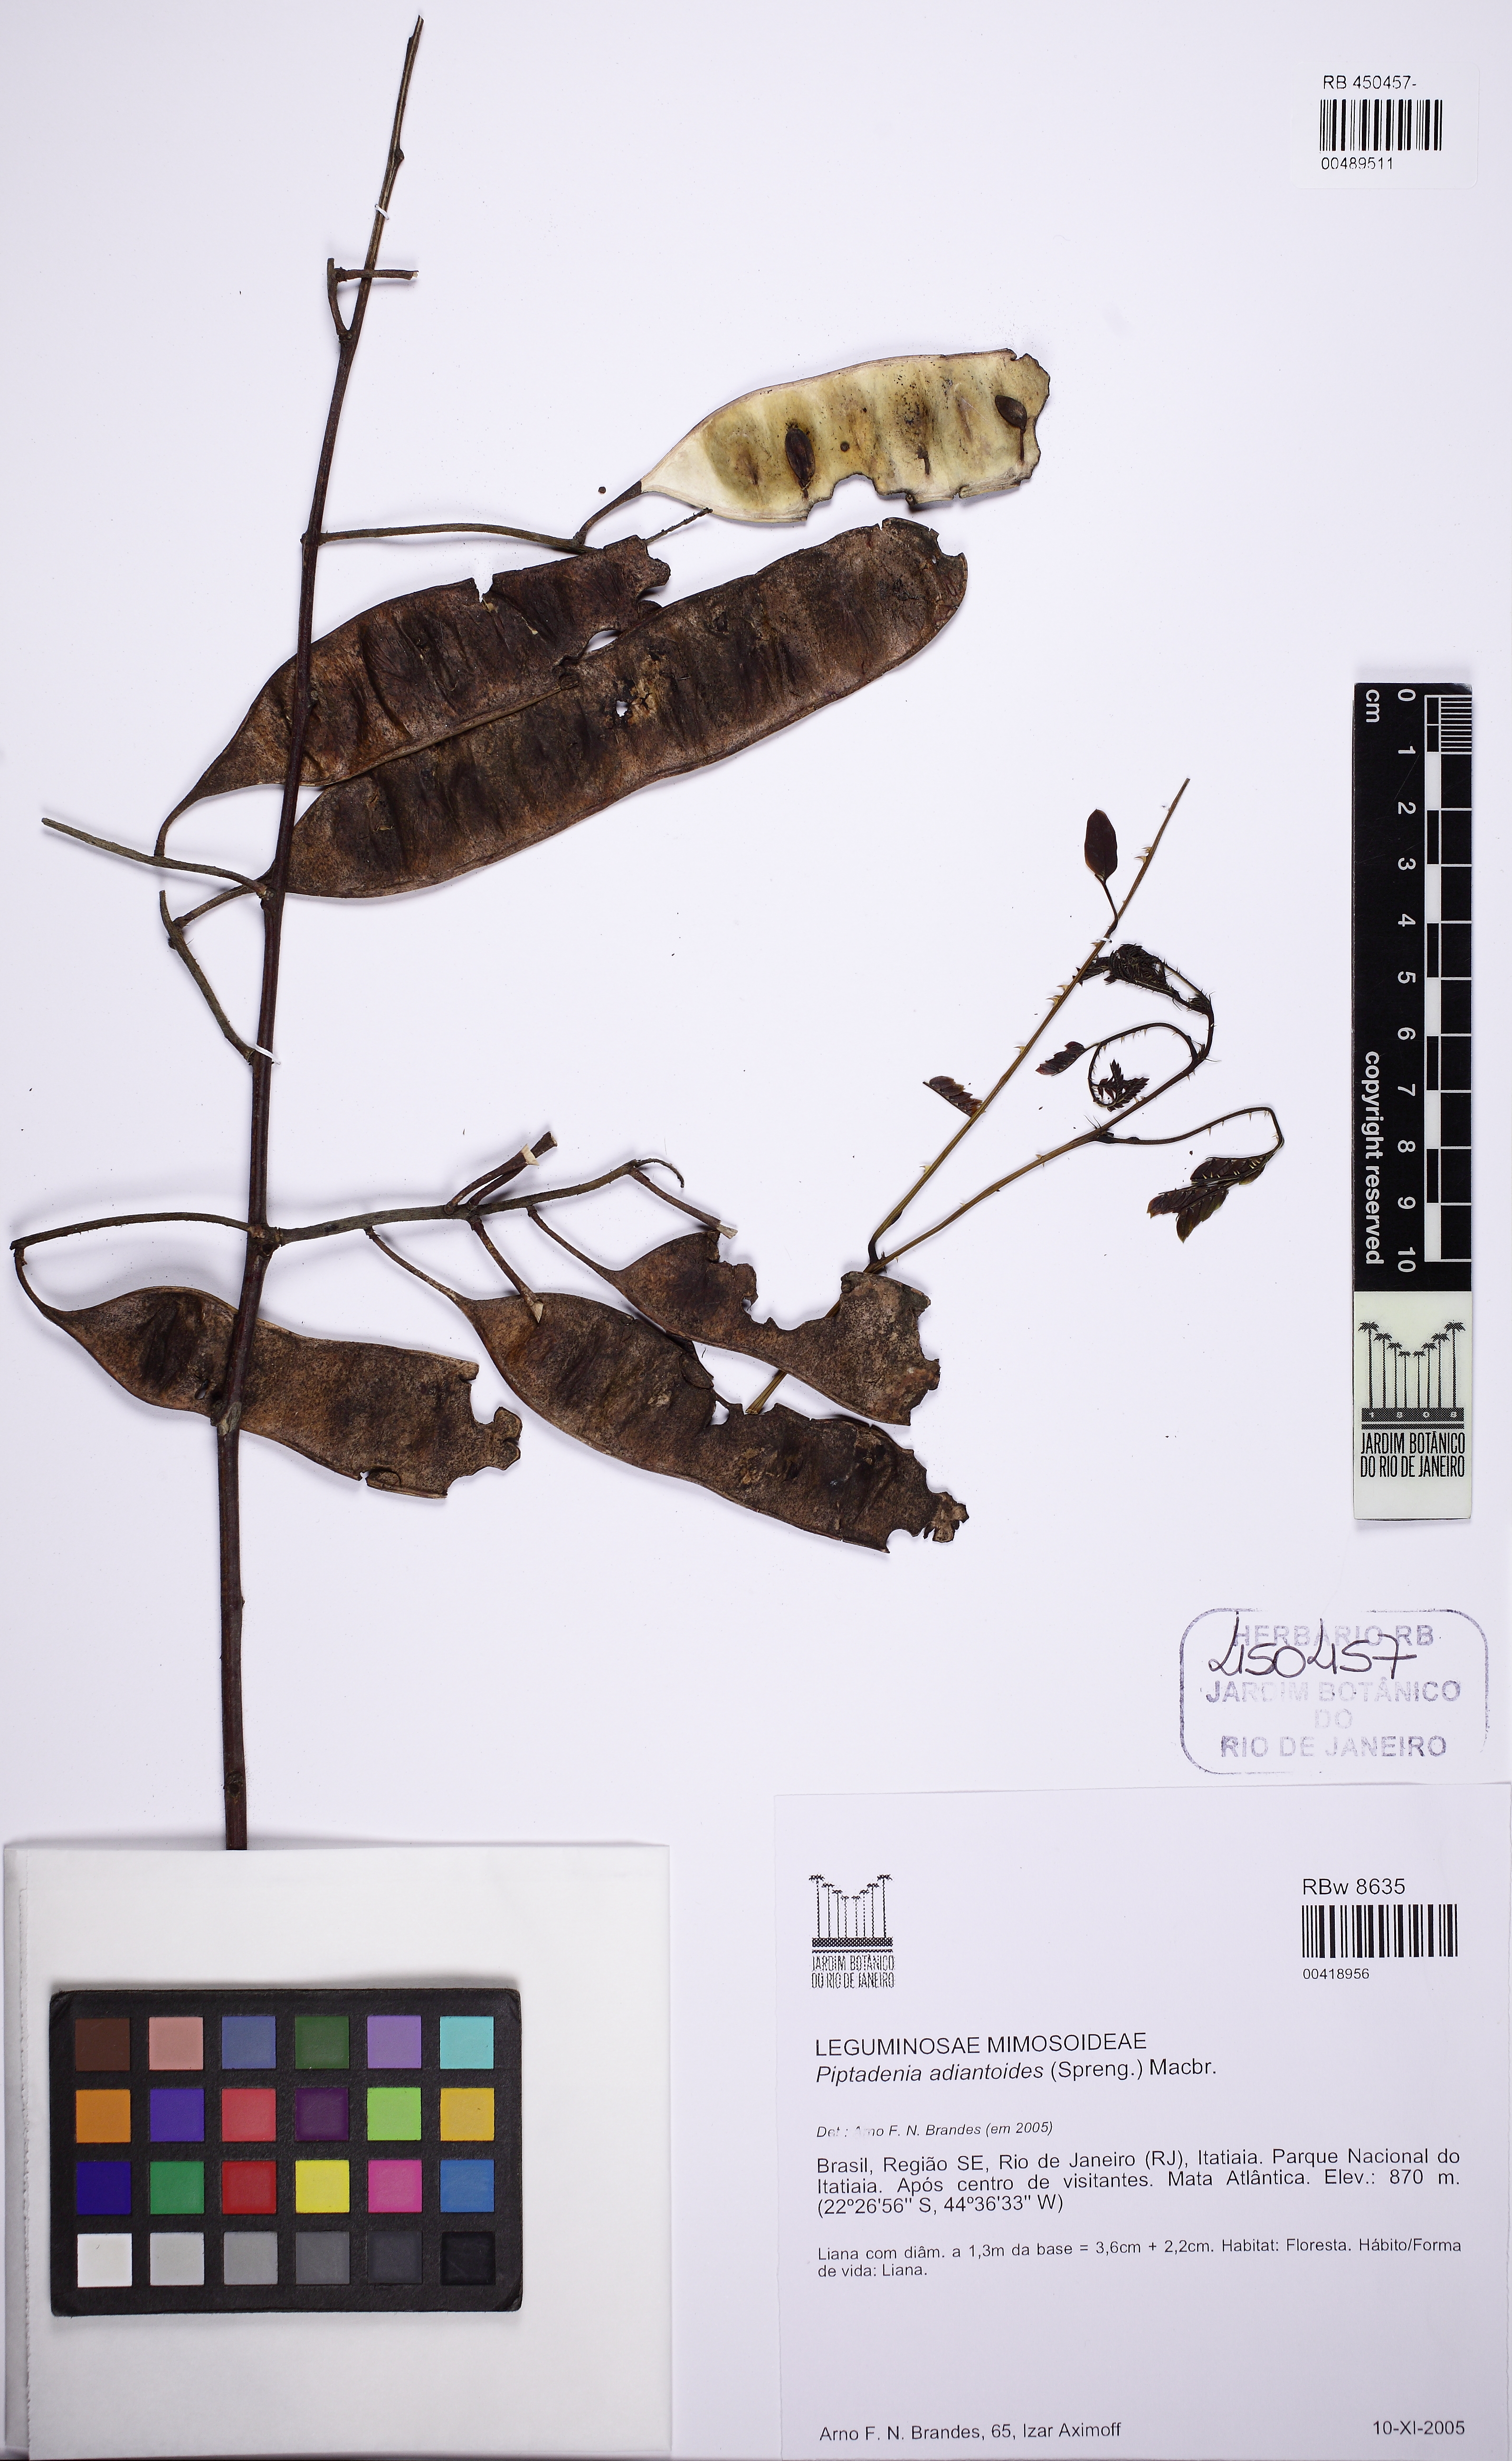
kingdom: Plantae
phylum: Tracheophyta
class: Magnoliopsida
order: Fabales
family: Fabaceae
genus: Piptadenia
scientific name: Piptadenia adiantoides
